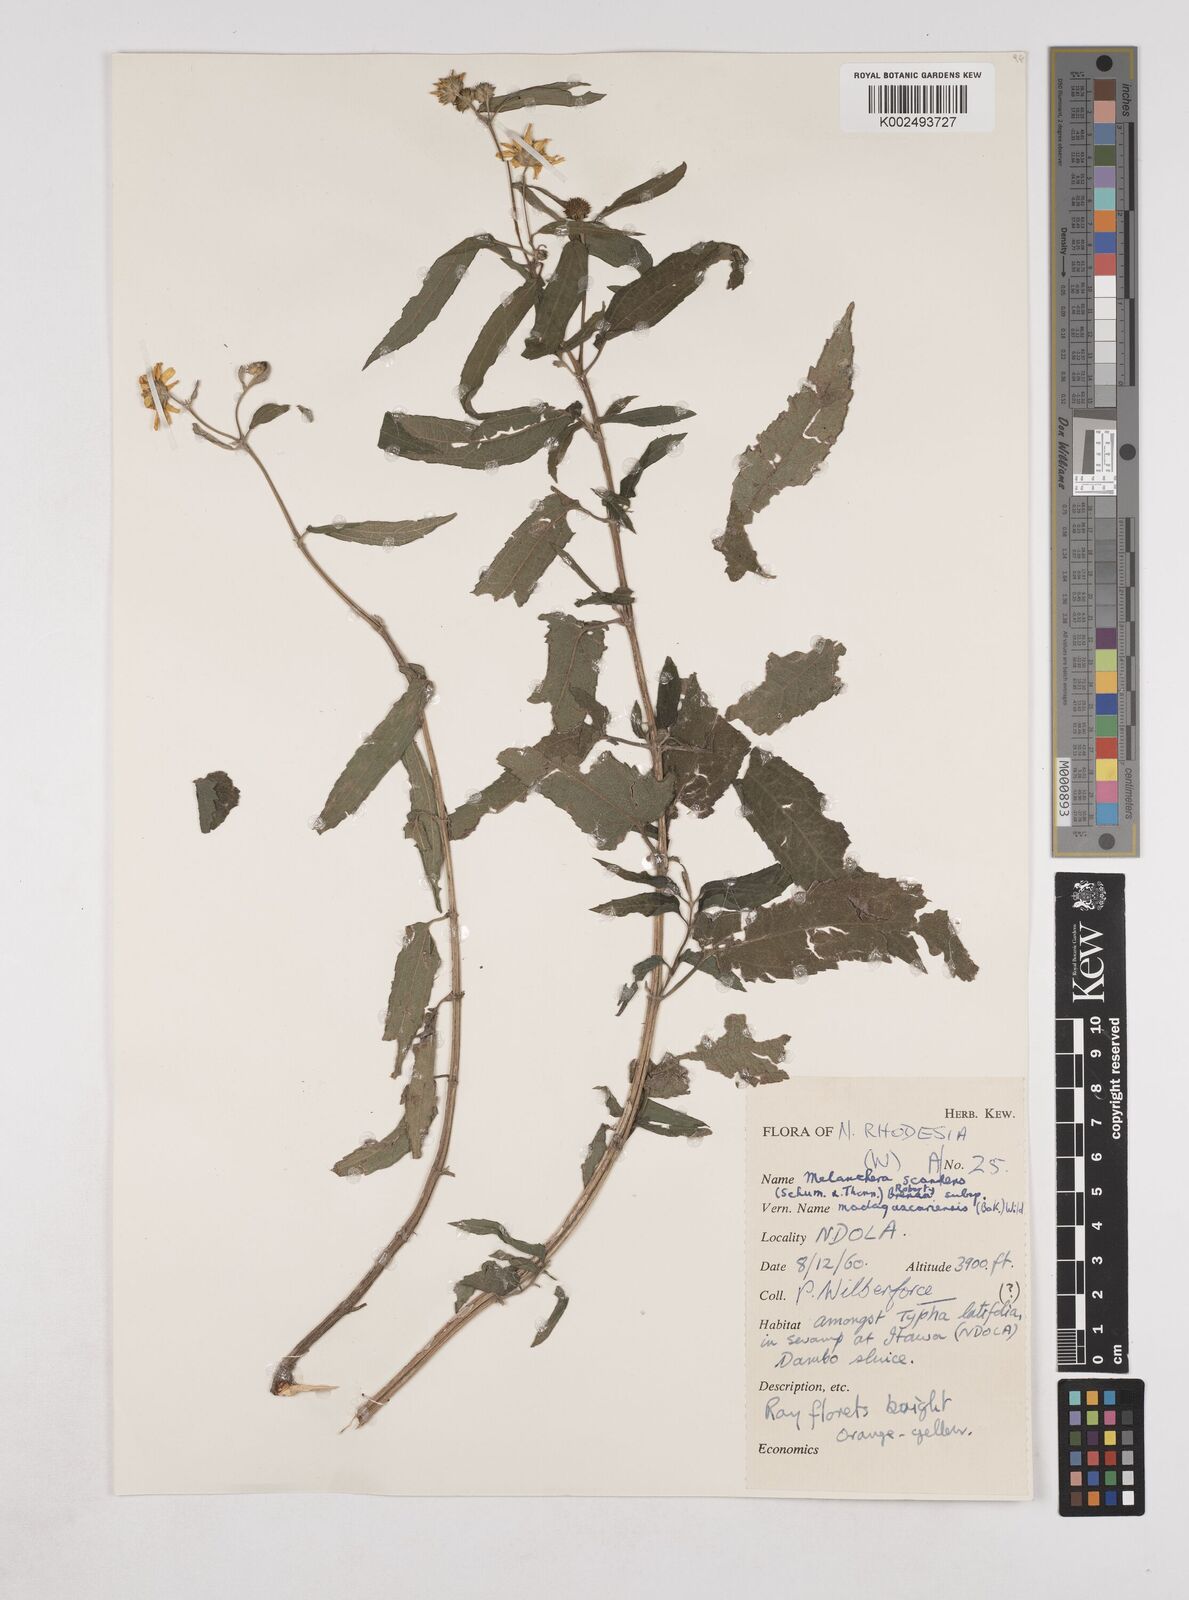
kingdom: Plantae
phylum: Tracheophyta
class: Magnoliopsida
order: Asterales
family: Asteraceae
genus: Lipotriche
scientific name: Lipotriche scandens
